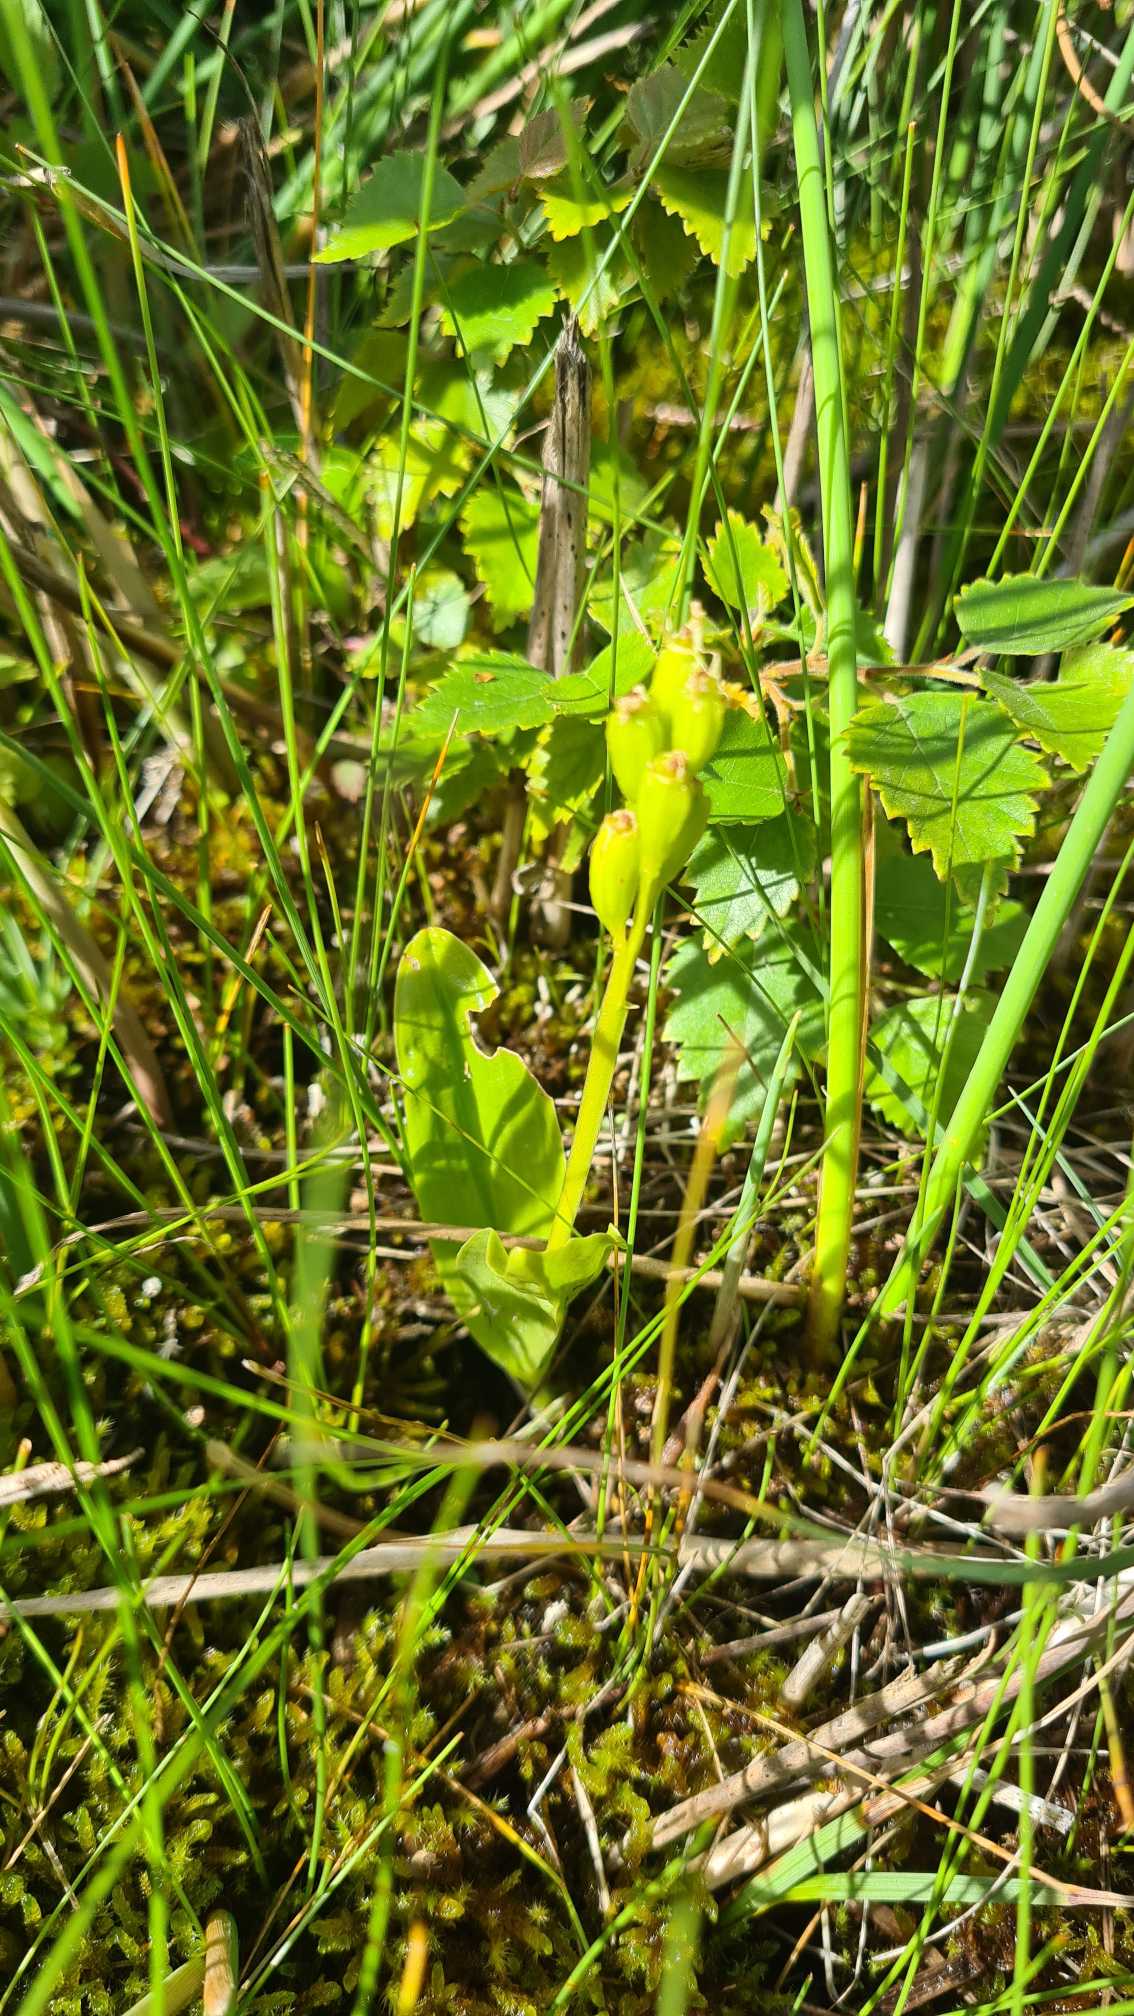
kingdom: Animalia
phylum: Arthropoda
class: Insecta
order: Coleoptera
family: Curculionidae
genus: Liparis
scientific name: Liparis loeselii
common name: Mygblomst
